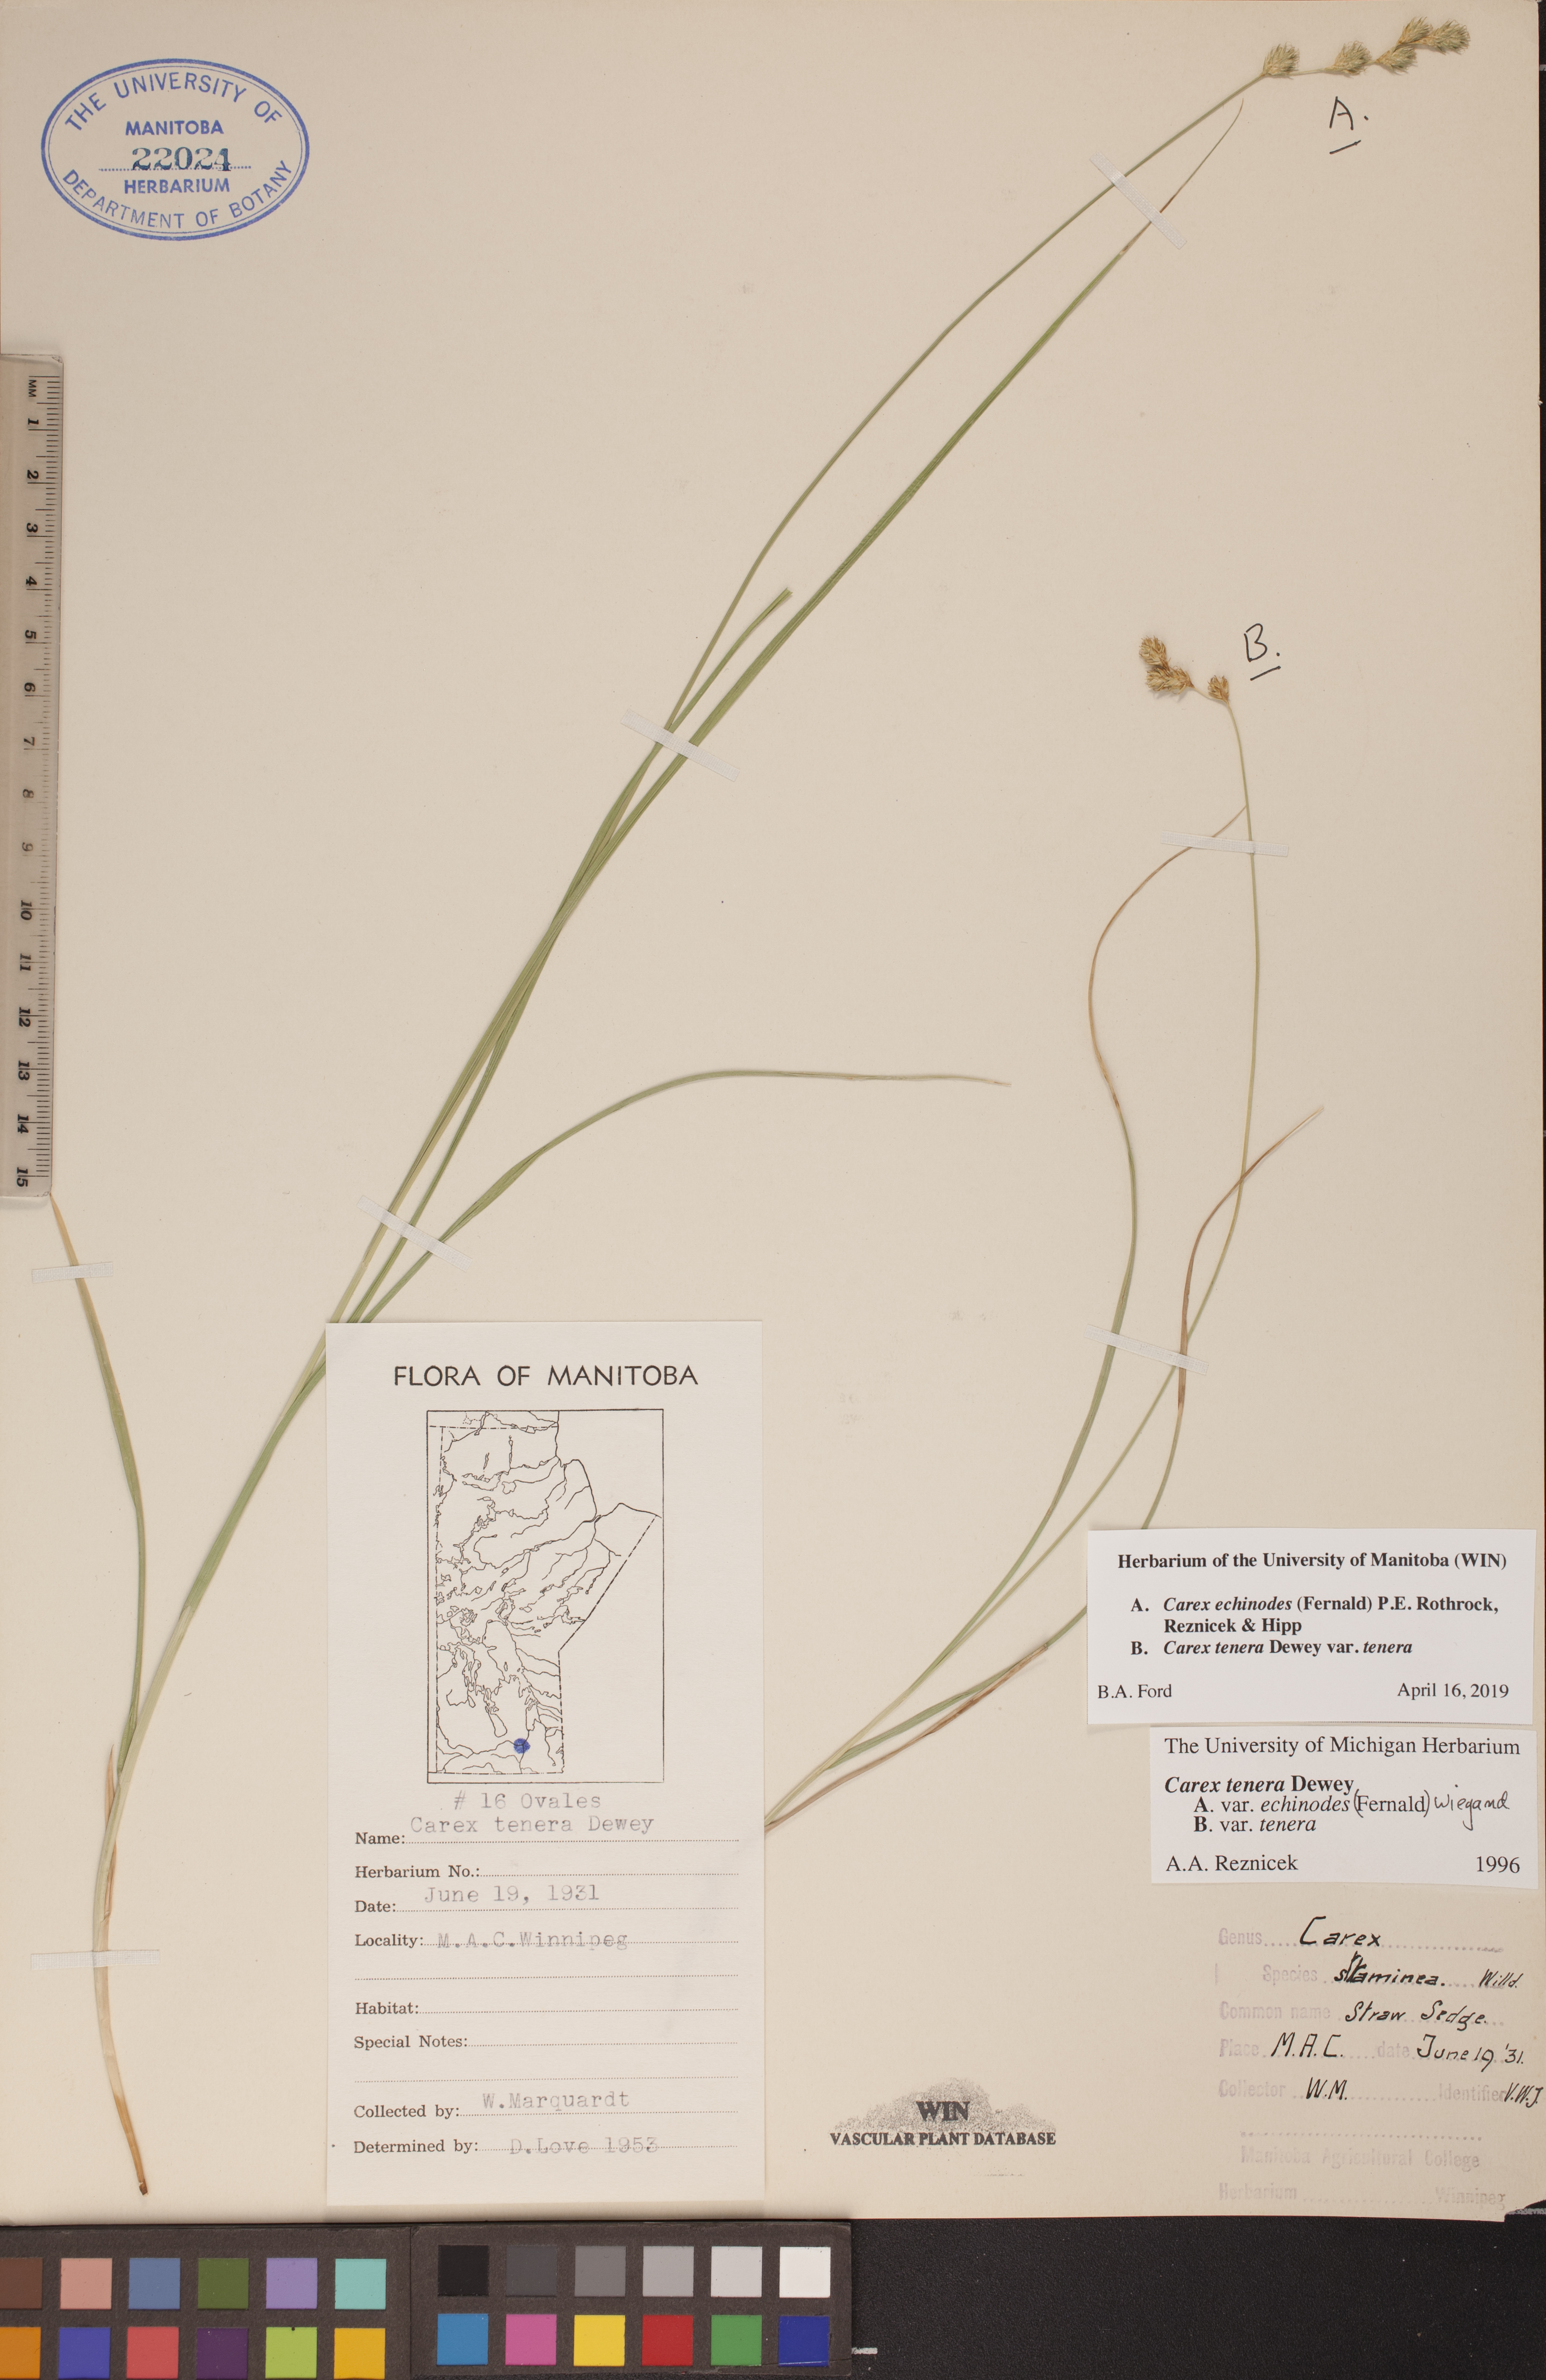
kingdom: Plantae
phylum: Tracheophyta
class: Liliopsida
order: Poales
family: Cyperaceae
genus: Carex
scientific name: Carex echinodes
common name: Marsh straw sedge
